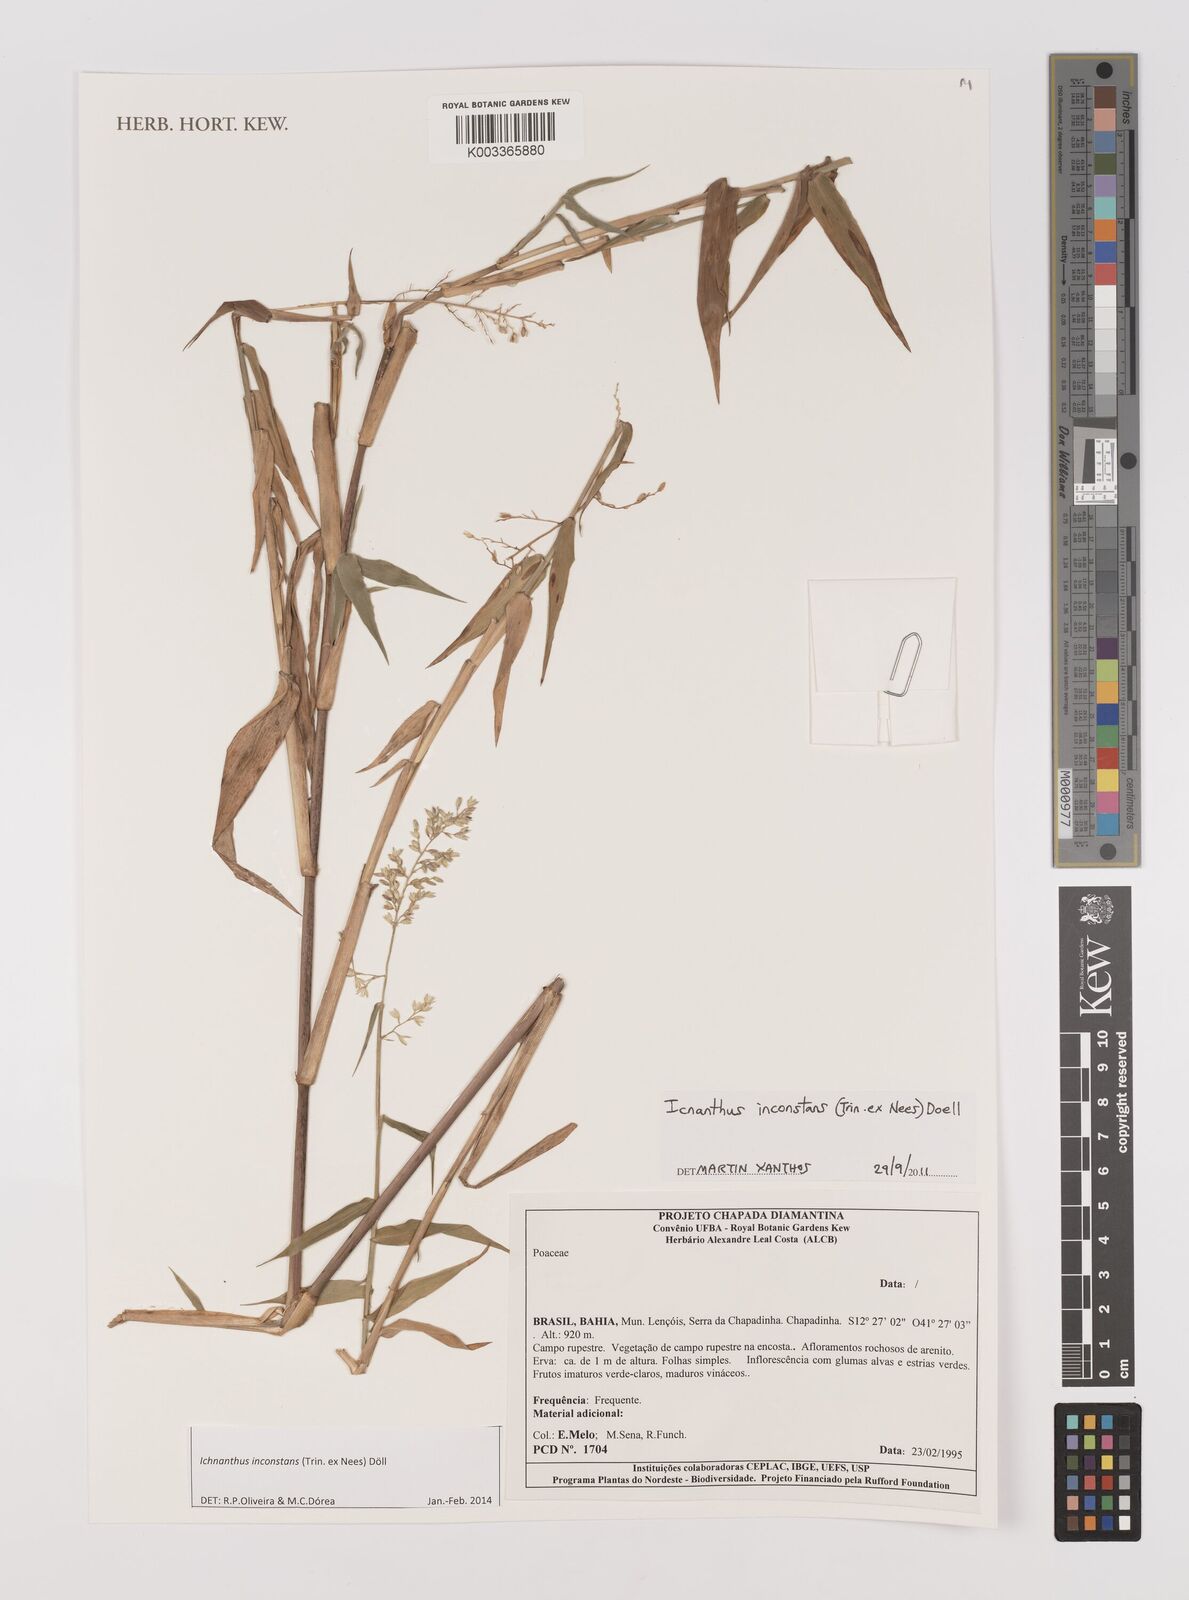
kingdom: Plantae
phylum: Tracheophyta
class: Liliopsida
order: Poales
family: Poaceae
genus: Ichnanthus
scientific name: Ichnanthus inconstans
